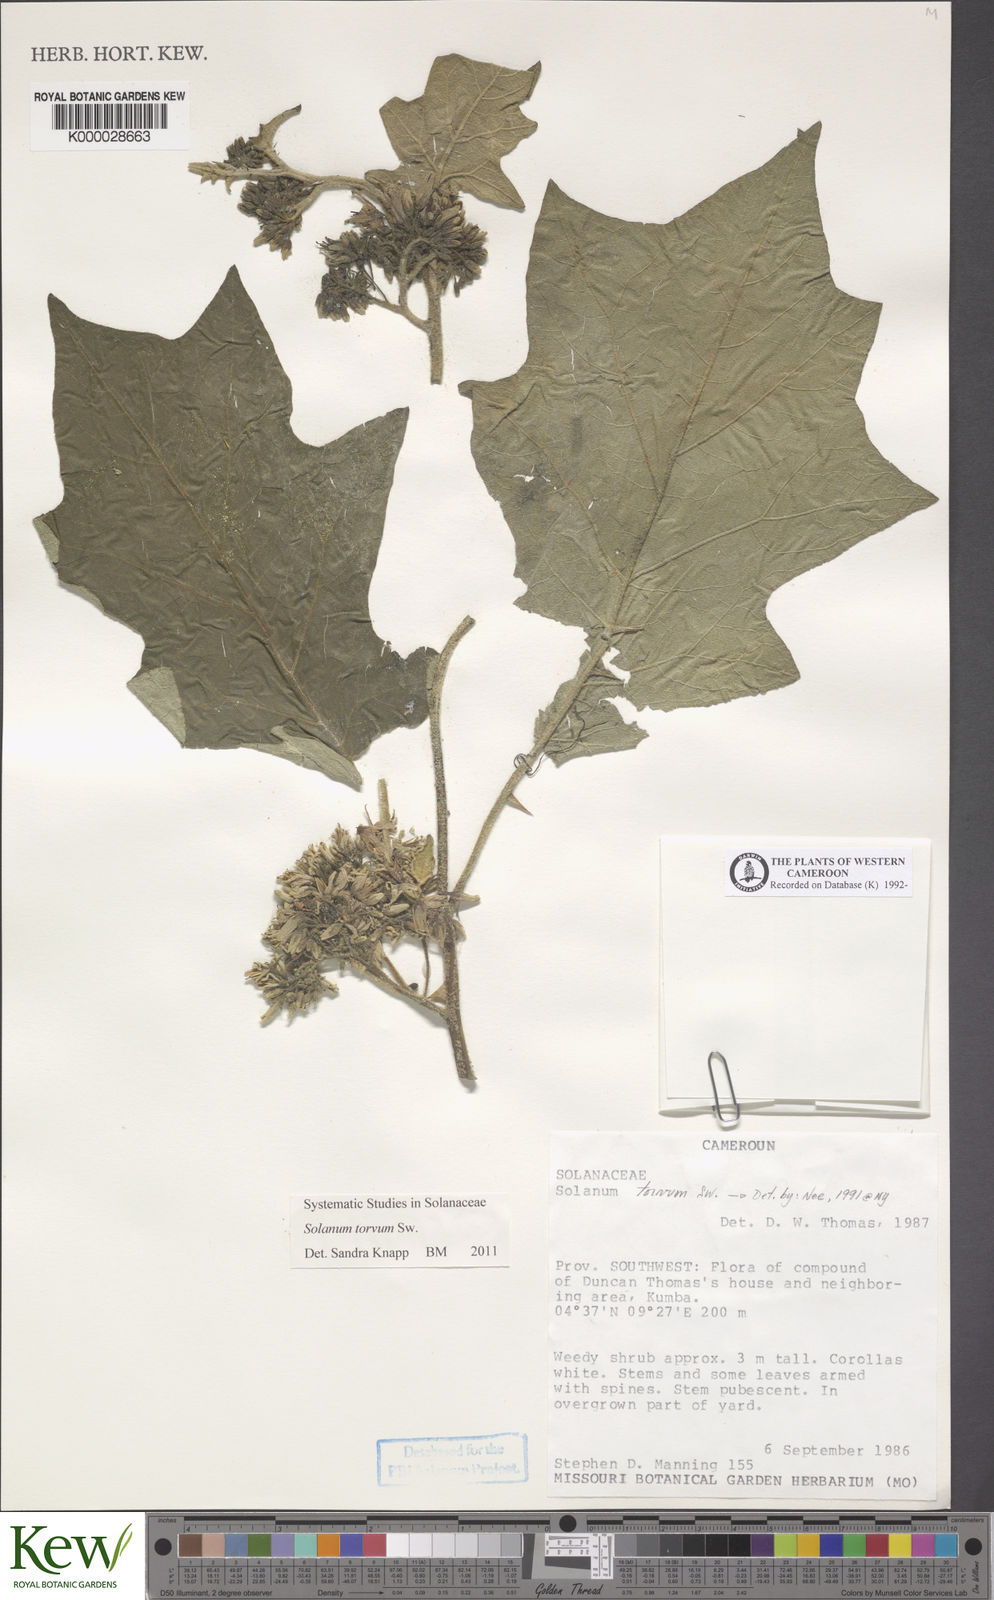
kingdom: Plantae
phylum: Tracheophyta
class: Magnoliopsida
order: Solanales
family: Solanaceae
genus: Solanum
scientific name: Solanum torvum
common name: Turkey berry
